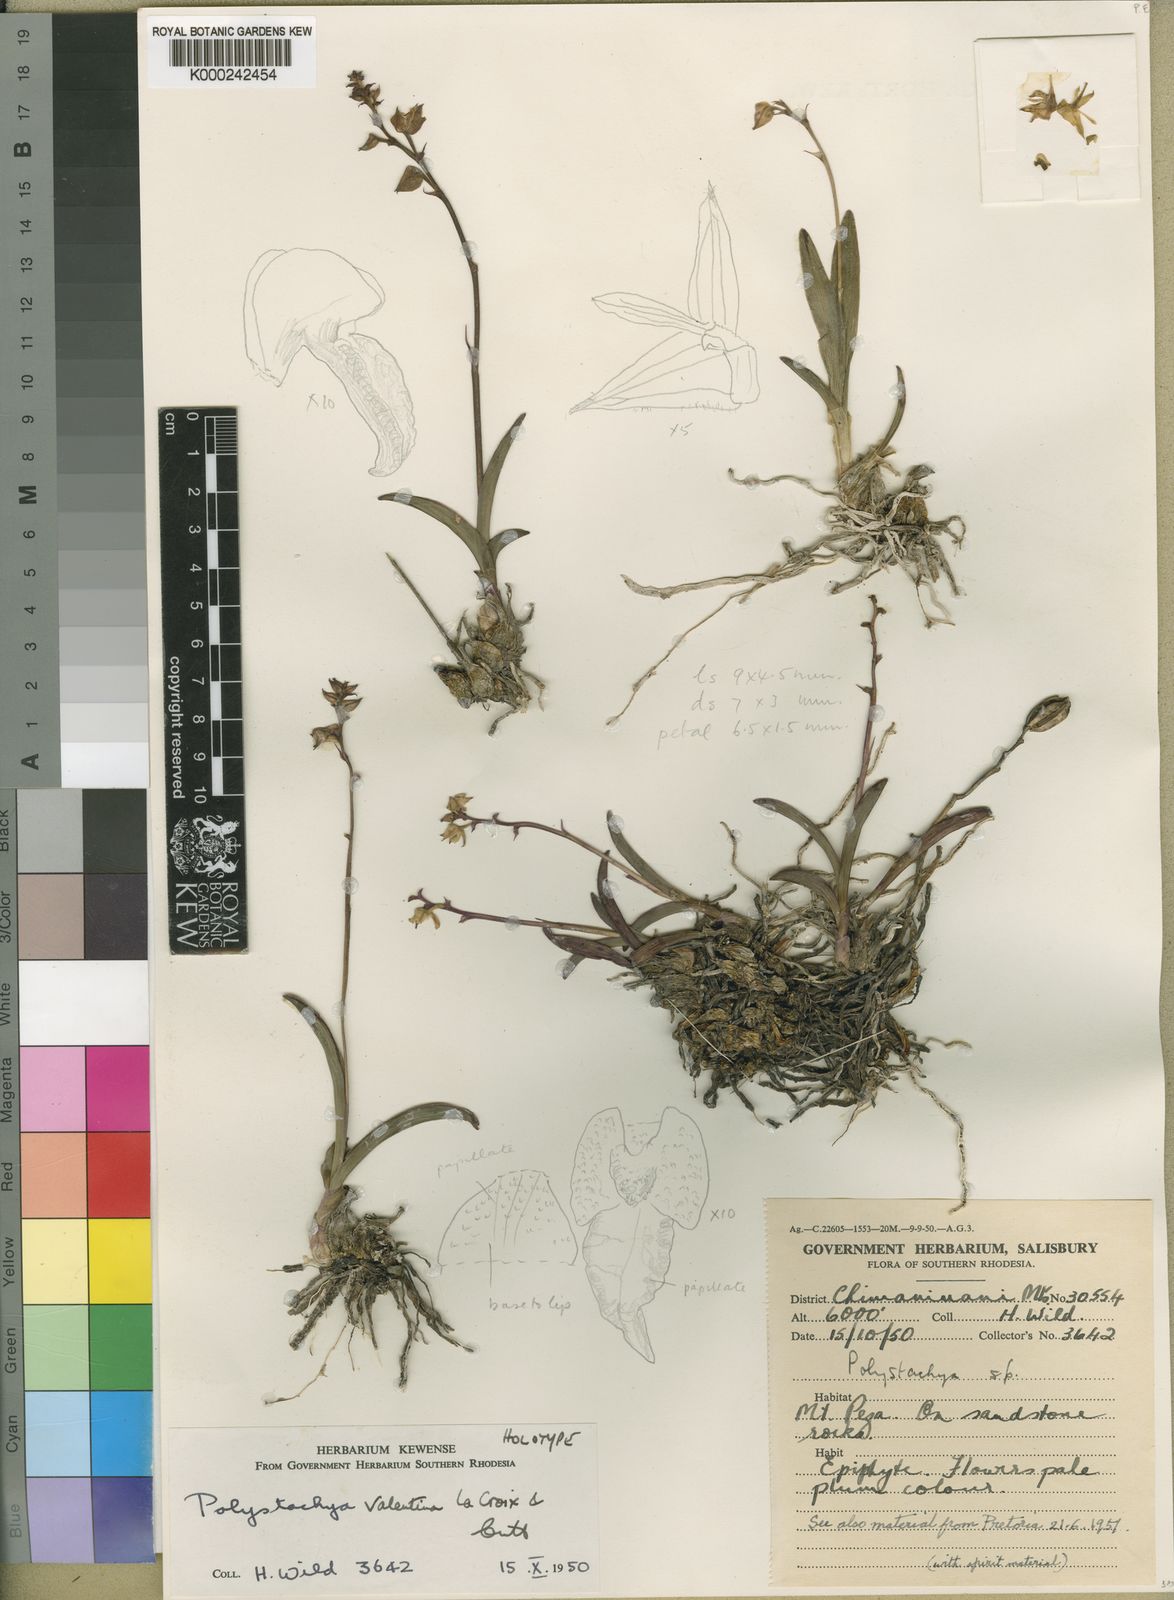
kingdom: Plantae
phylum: Tracheophyta
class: Liliopsida
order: Asparagales
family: Orchidaceae
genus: Polystachya
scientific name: Polystachya valentina
